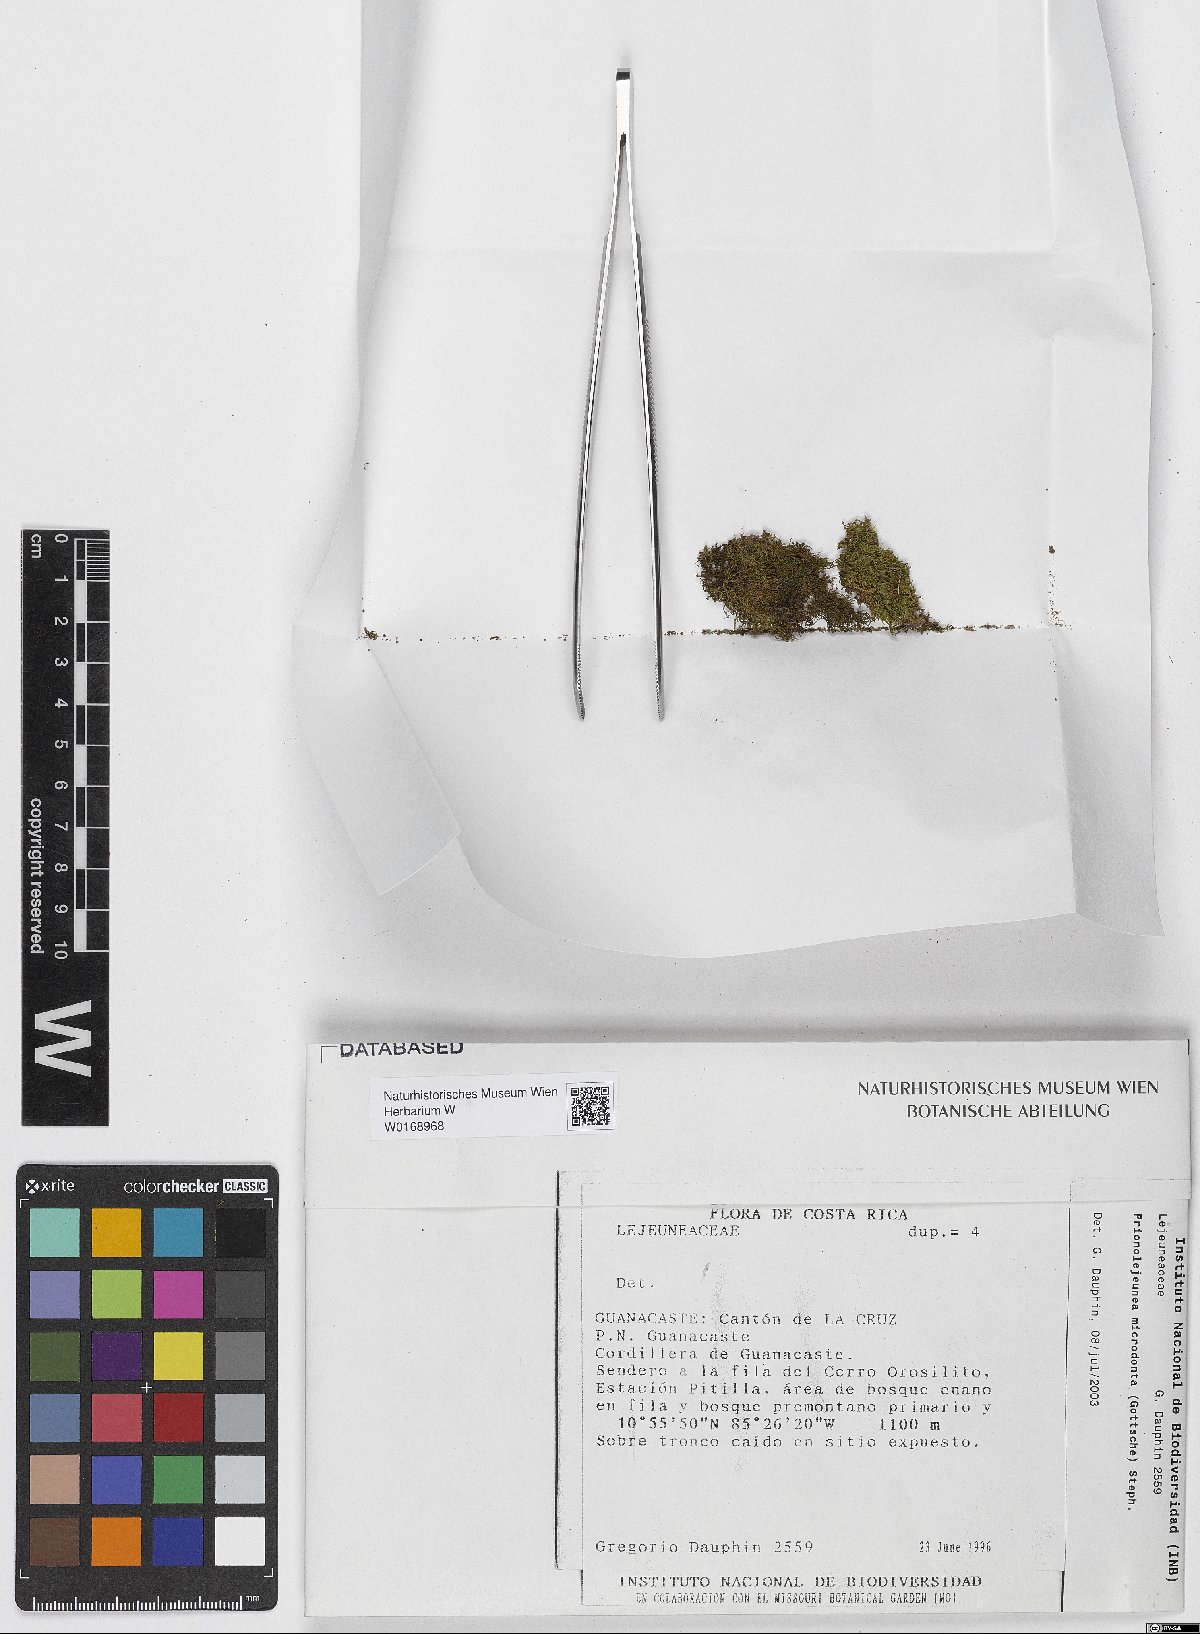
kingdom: Plantae
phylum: Marchantiophyta
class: Jungermanniopsida
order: Porellales
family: Lejeuneaceae
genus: Prionolejeunea
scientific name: Prionolejeunea
